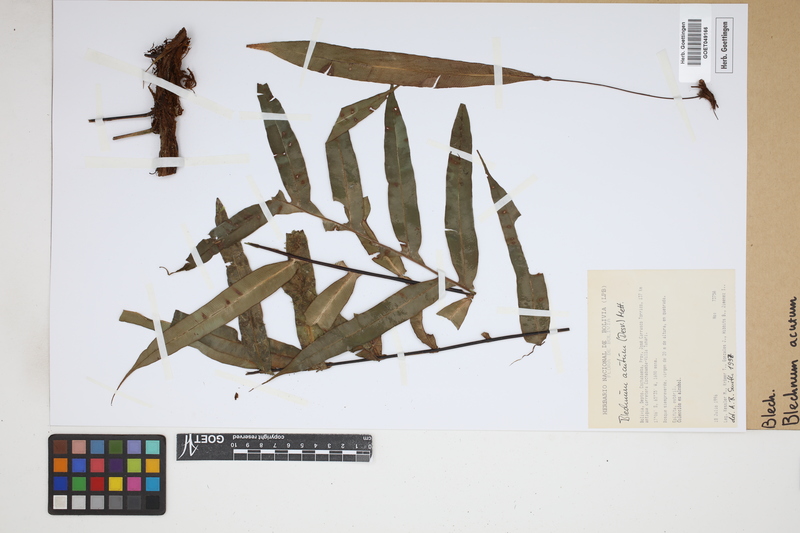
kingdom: Plantae
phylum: Tracheophyta
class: Polypodiopsida
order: Polypodiales
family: Blechnaceae
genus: Lomaridium
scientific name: Lomaridium acutum
